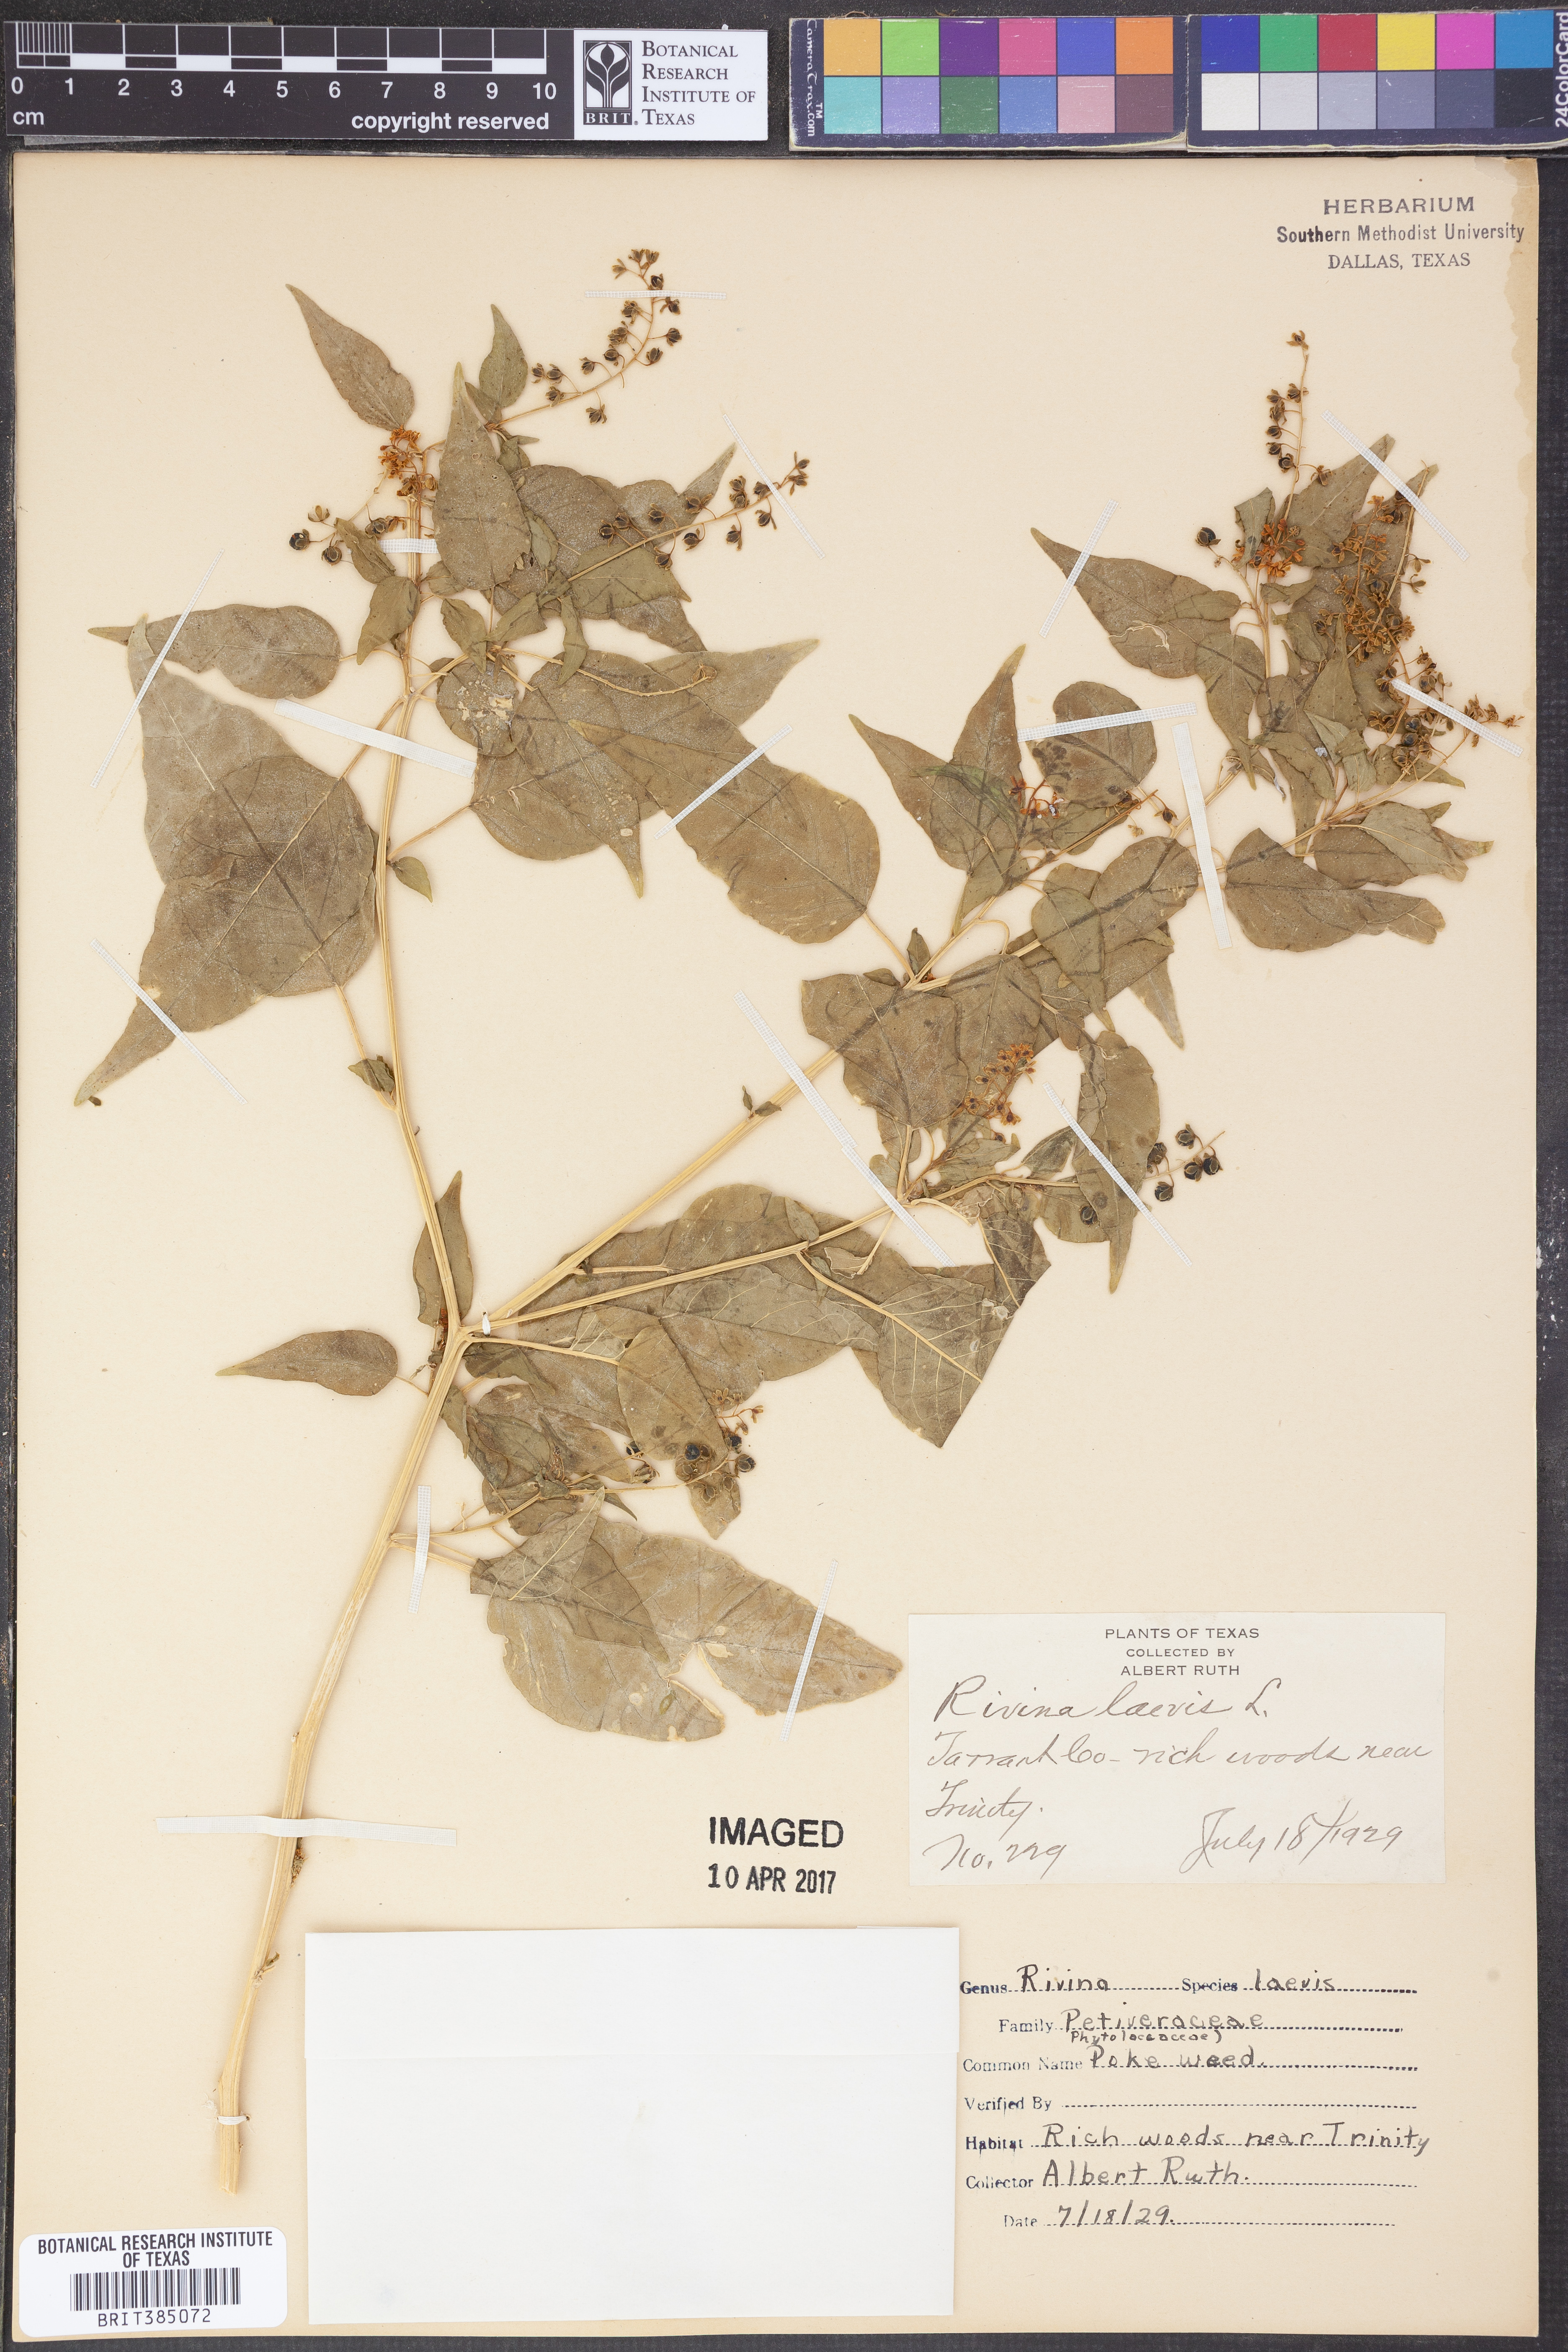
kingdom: Plantae
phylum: Tracheophyta
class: Magnoliopsida
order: Caryophyllales
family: Phytolaccaceae
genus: Rivina
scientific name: Rivina humilis
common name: Rougeplant
